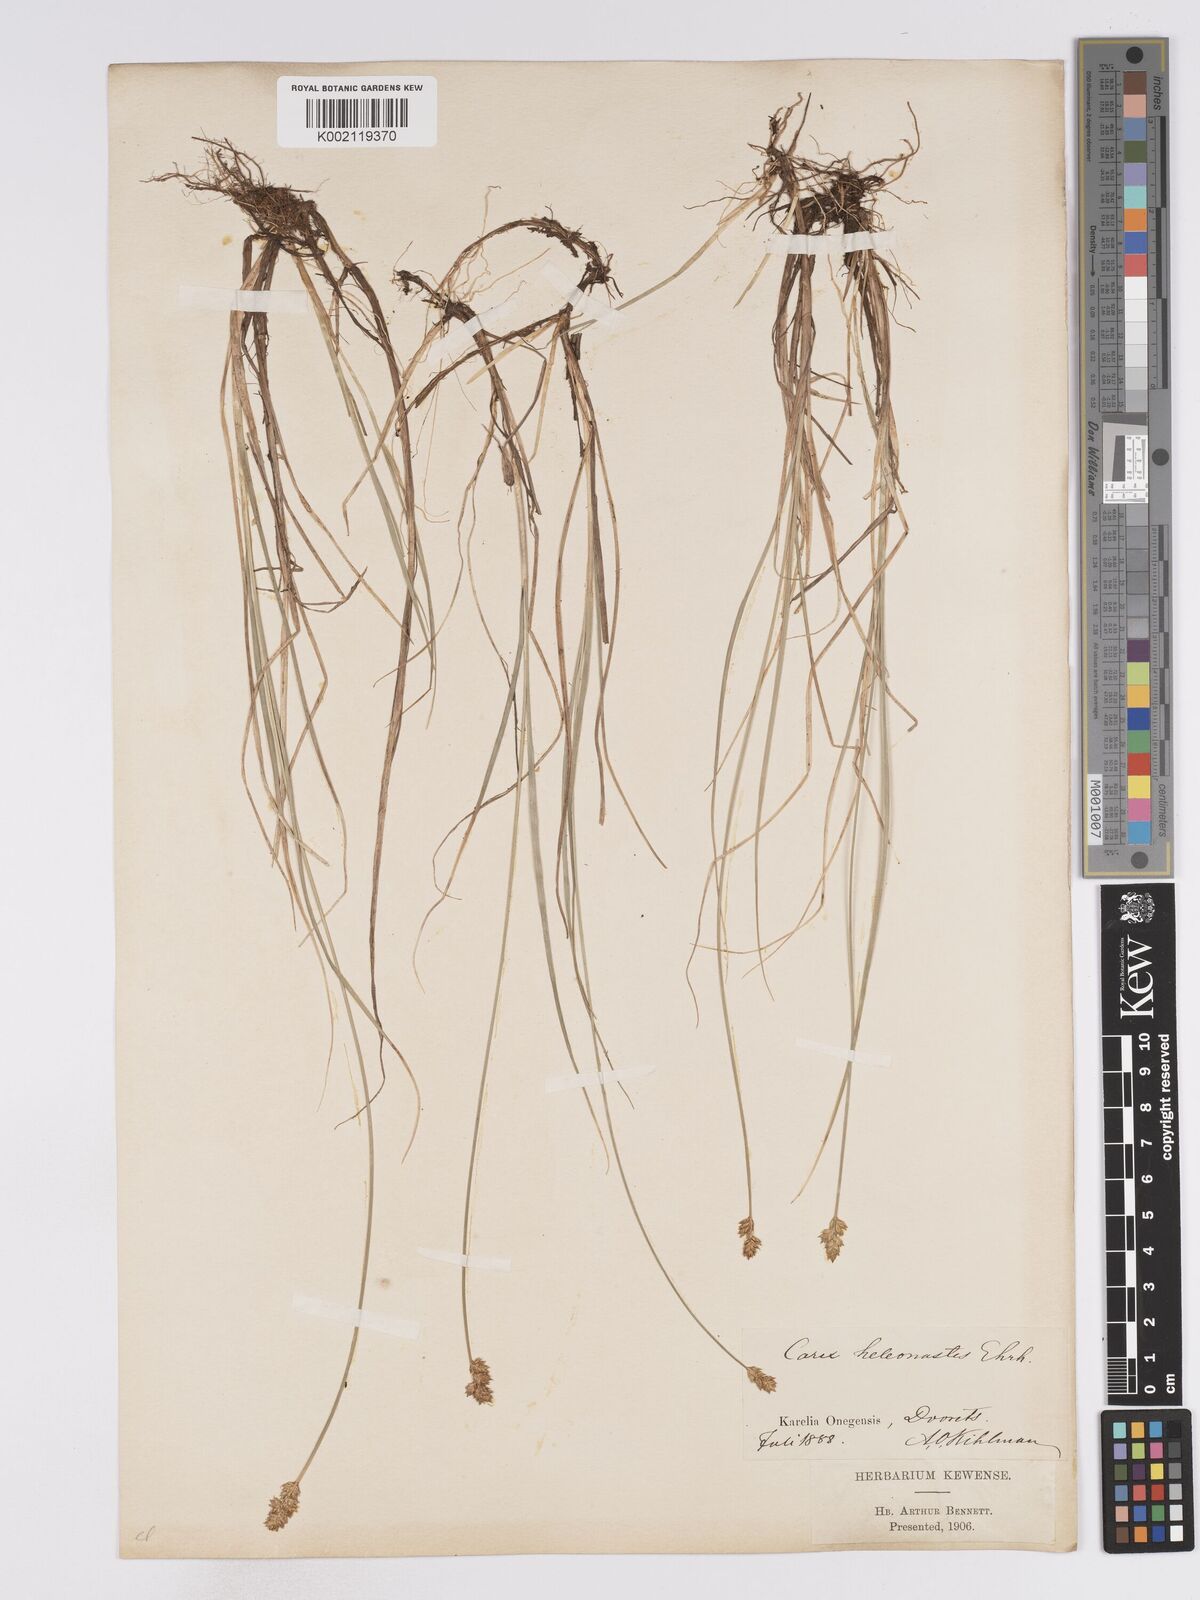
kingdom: Plantae
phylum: Tracheophyta
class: Liliopsida
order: Poales
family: Cyperaceae
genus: Carex
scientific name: Carex heleonastes
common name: Hudson bay sedge
